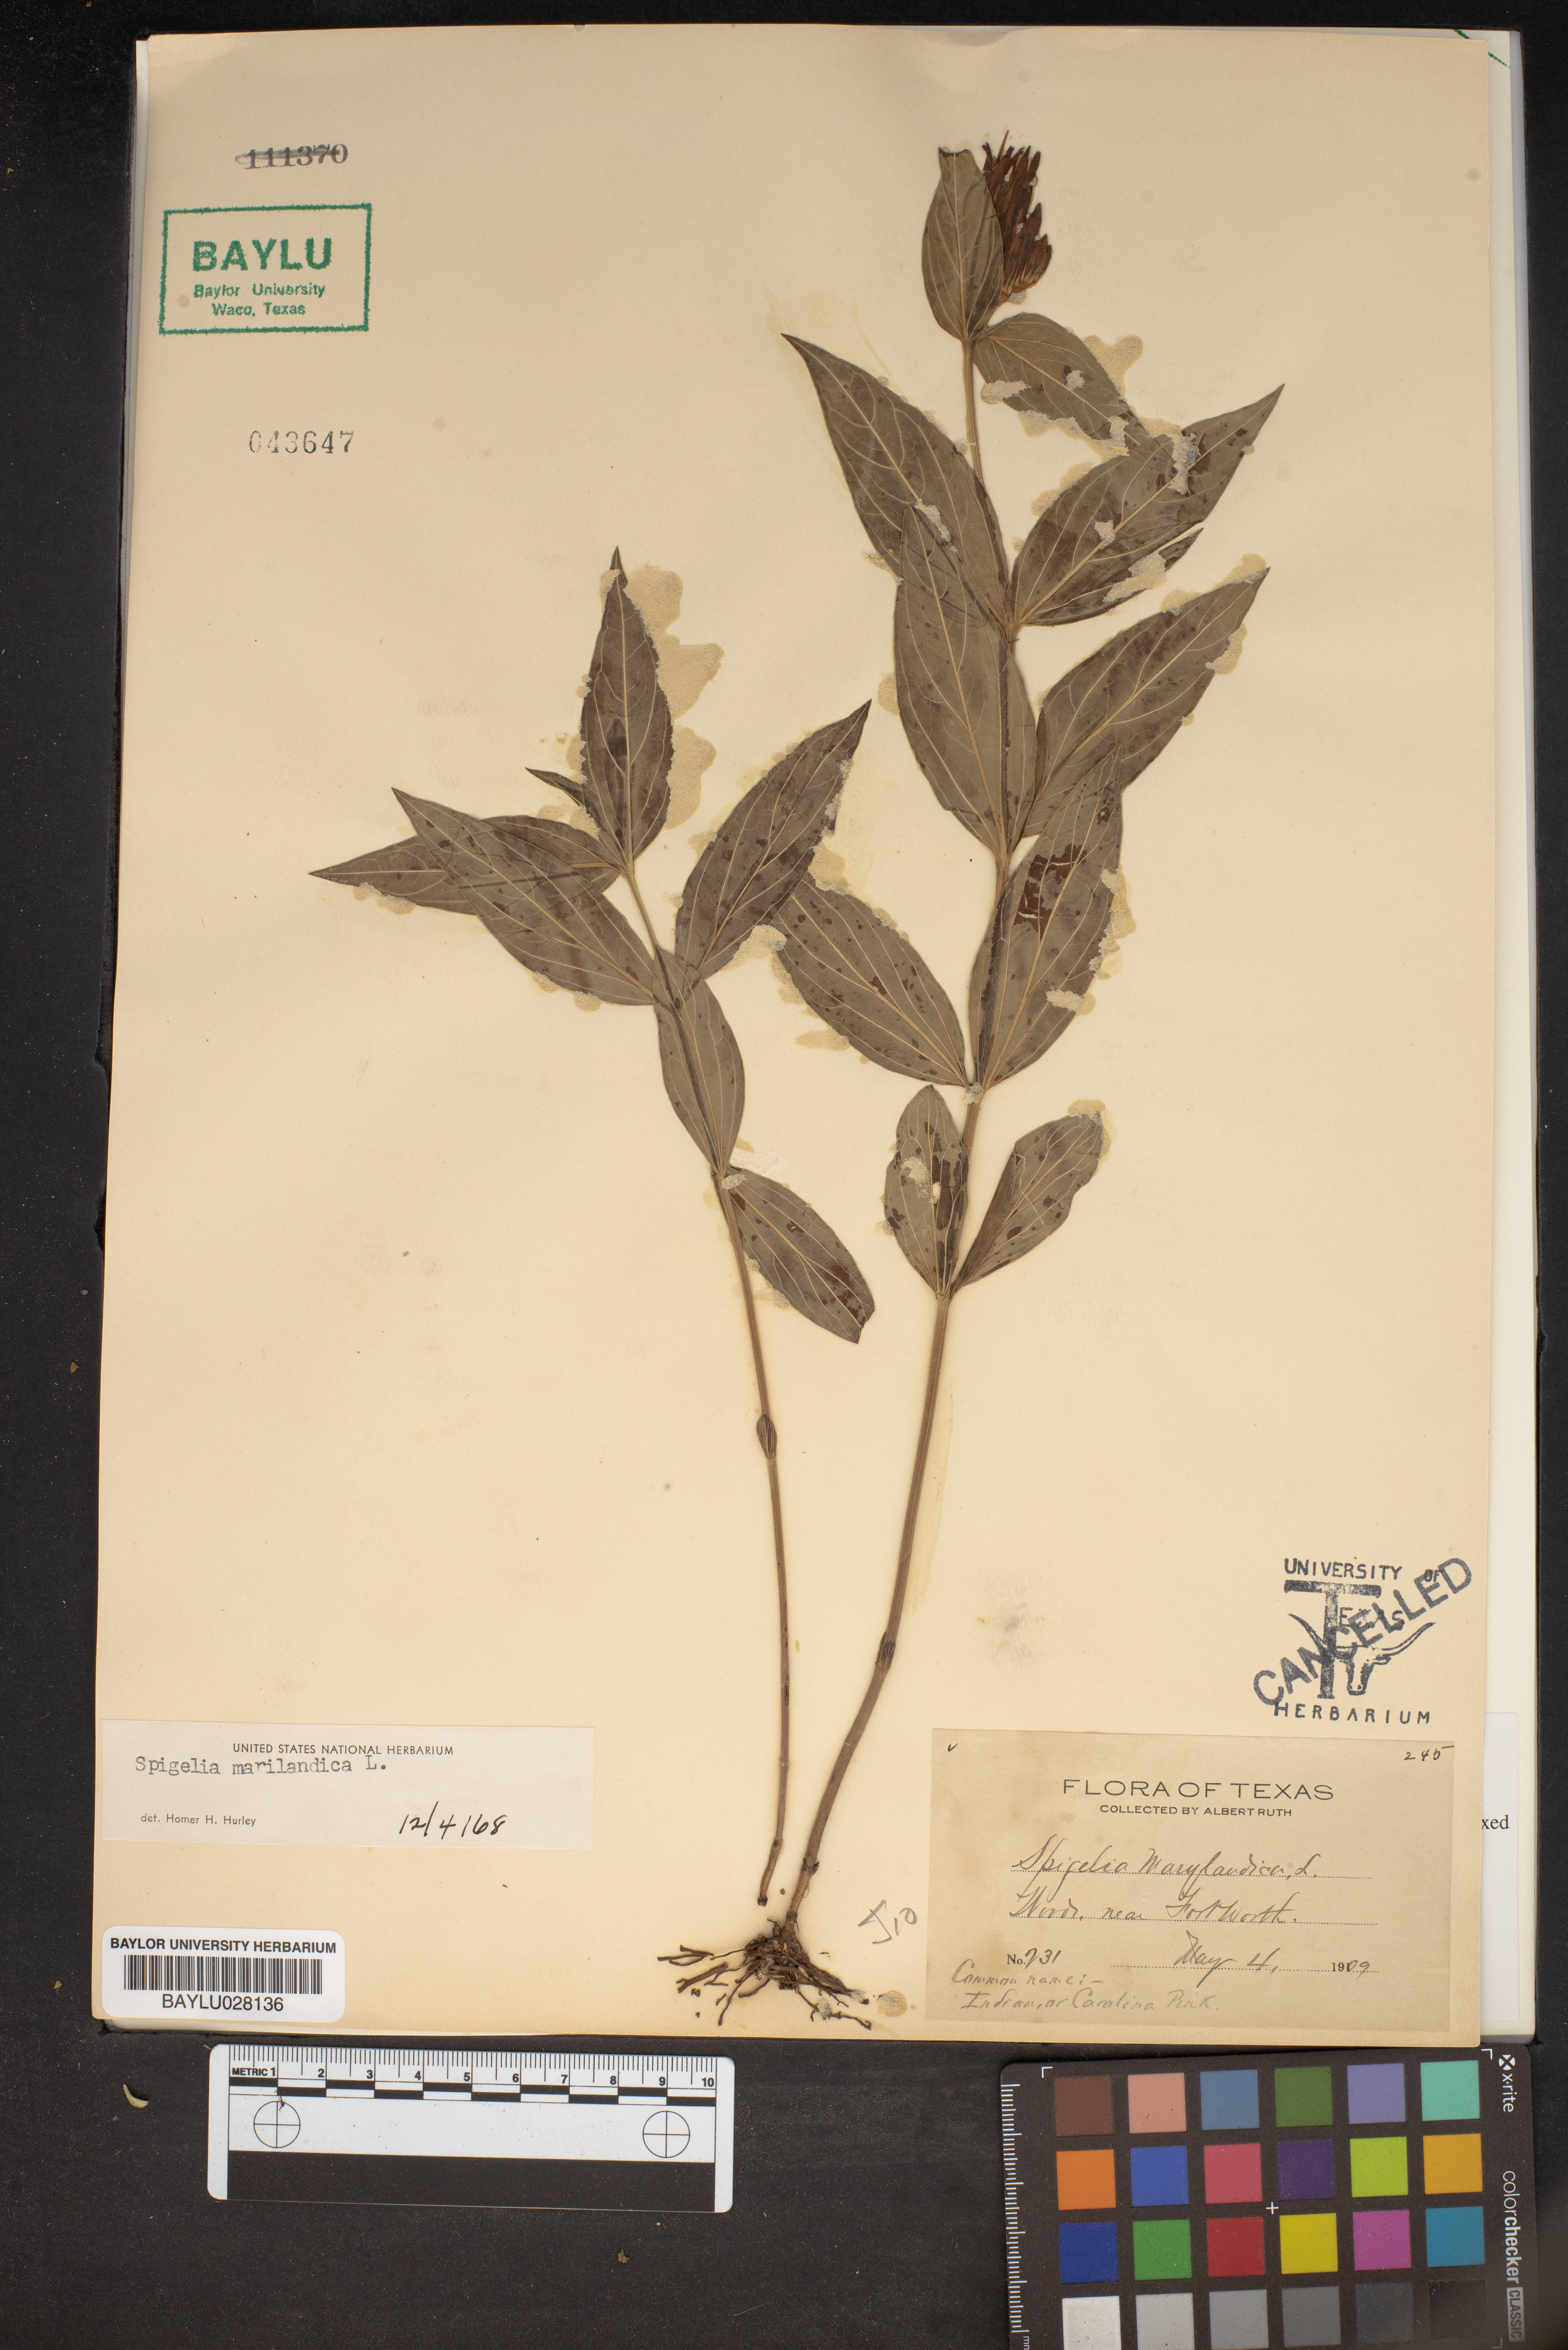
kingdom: Plantae
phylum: Tracheophyta
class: Magnoliopsida
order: Gentianales
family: Loganiaceae
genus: Spigelia
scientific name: Spigelia marilandica
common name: Indian-pink
